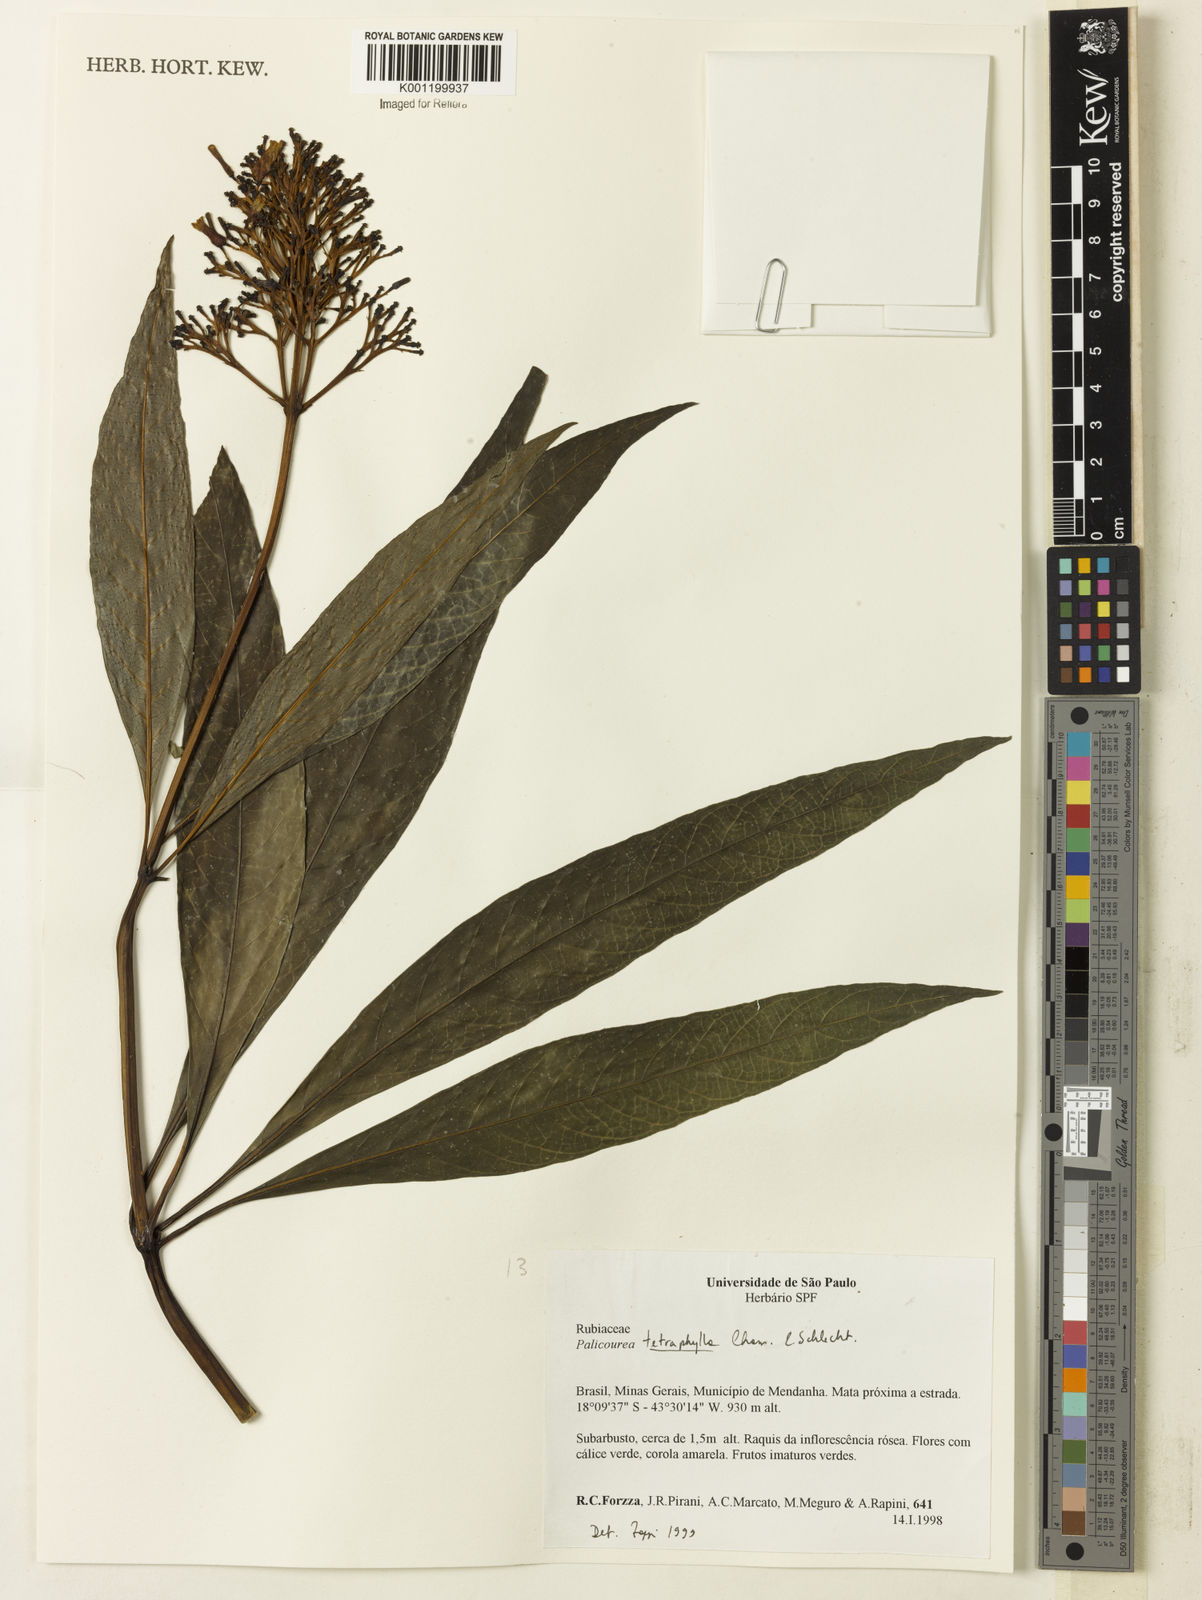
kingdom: Plantae
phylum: Tracheophyta
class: Magnoliopsida
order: Gentianales
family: Rubiaceae
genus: Palicourea
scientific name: Palicourea tetraphylla
